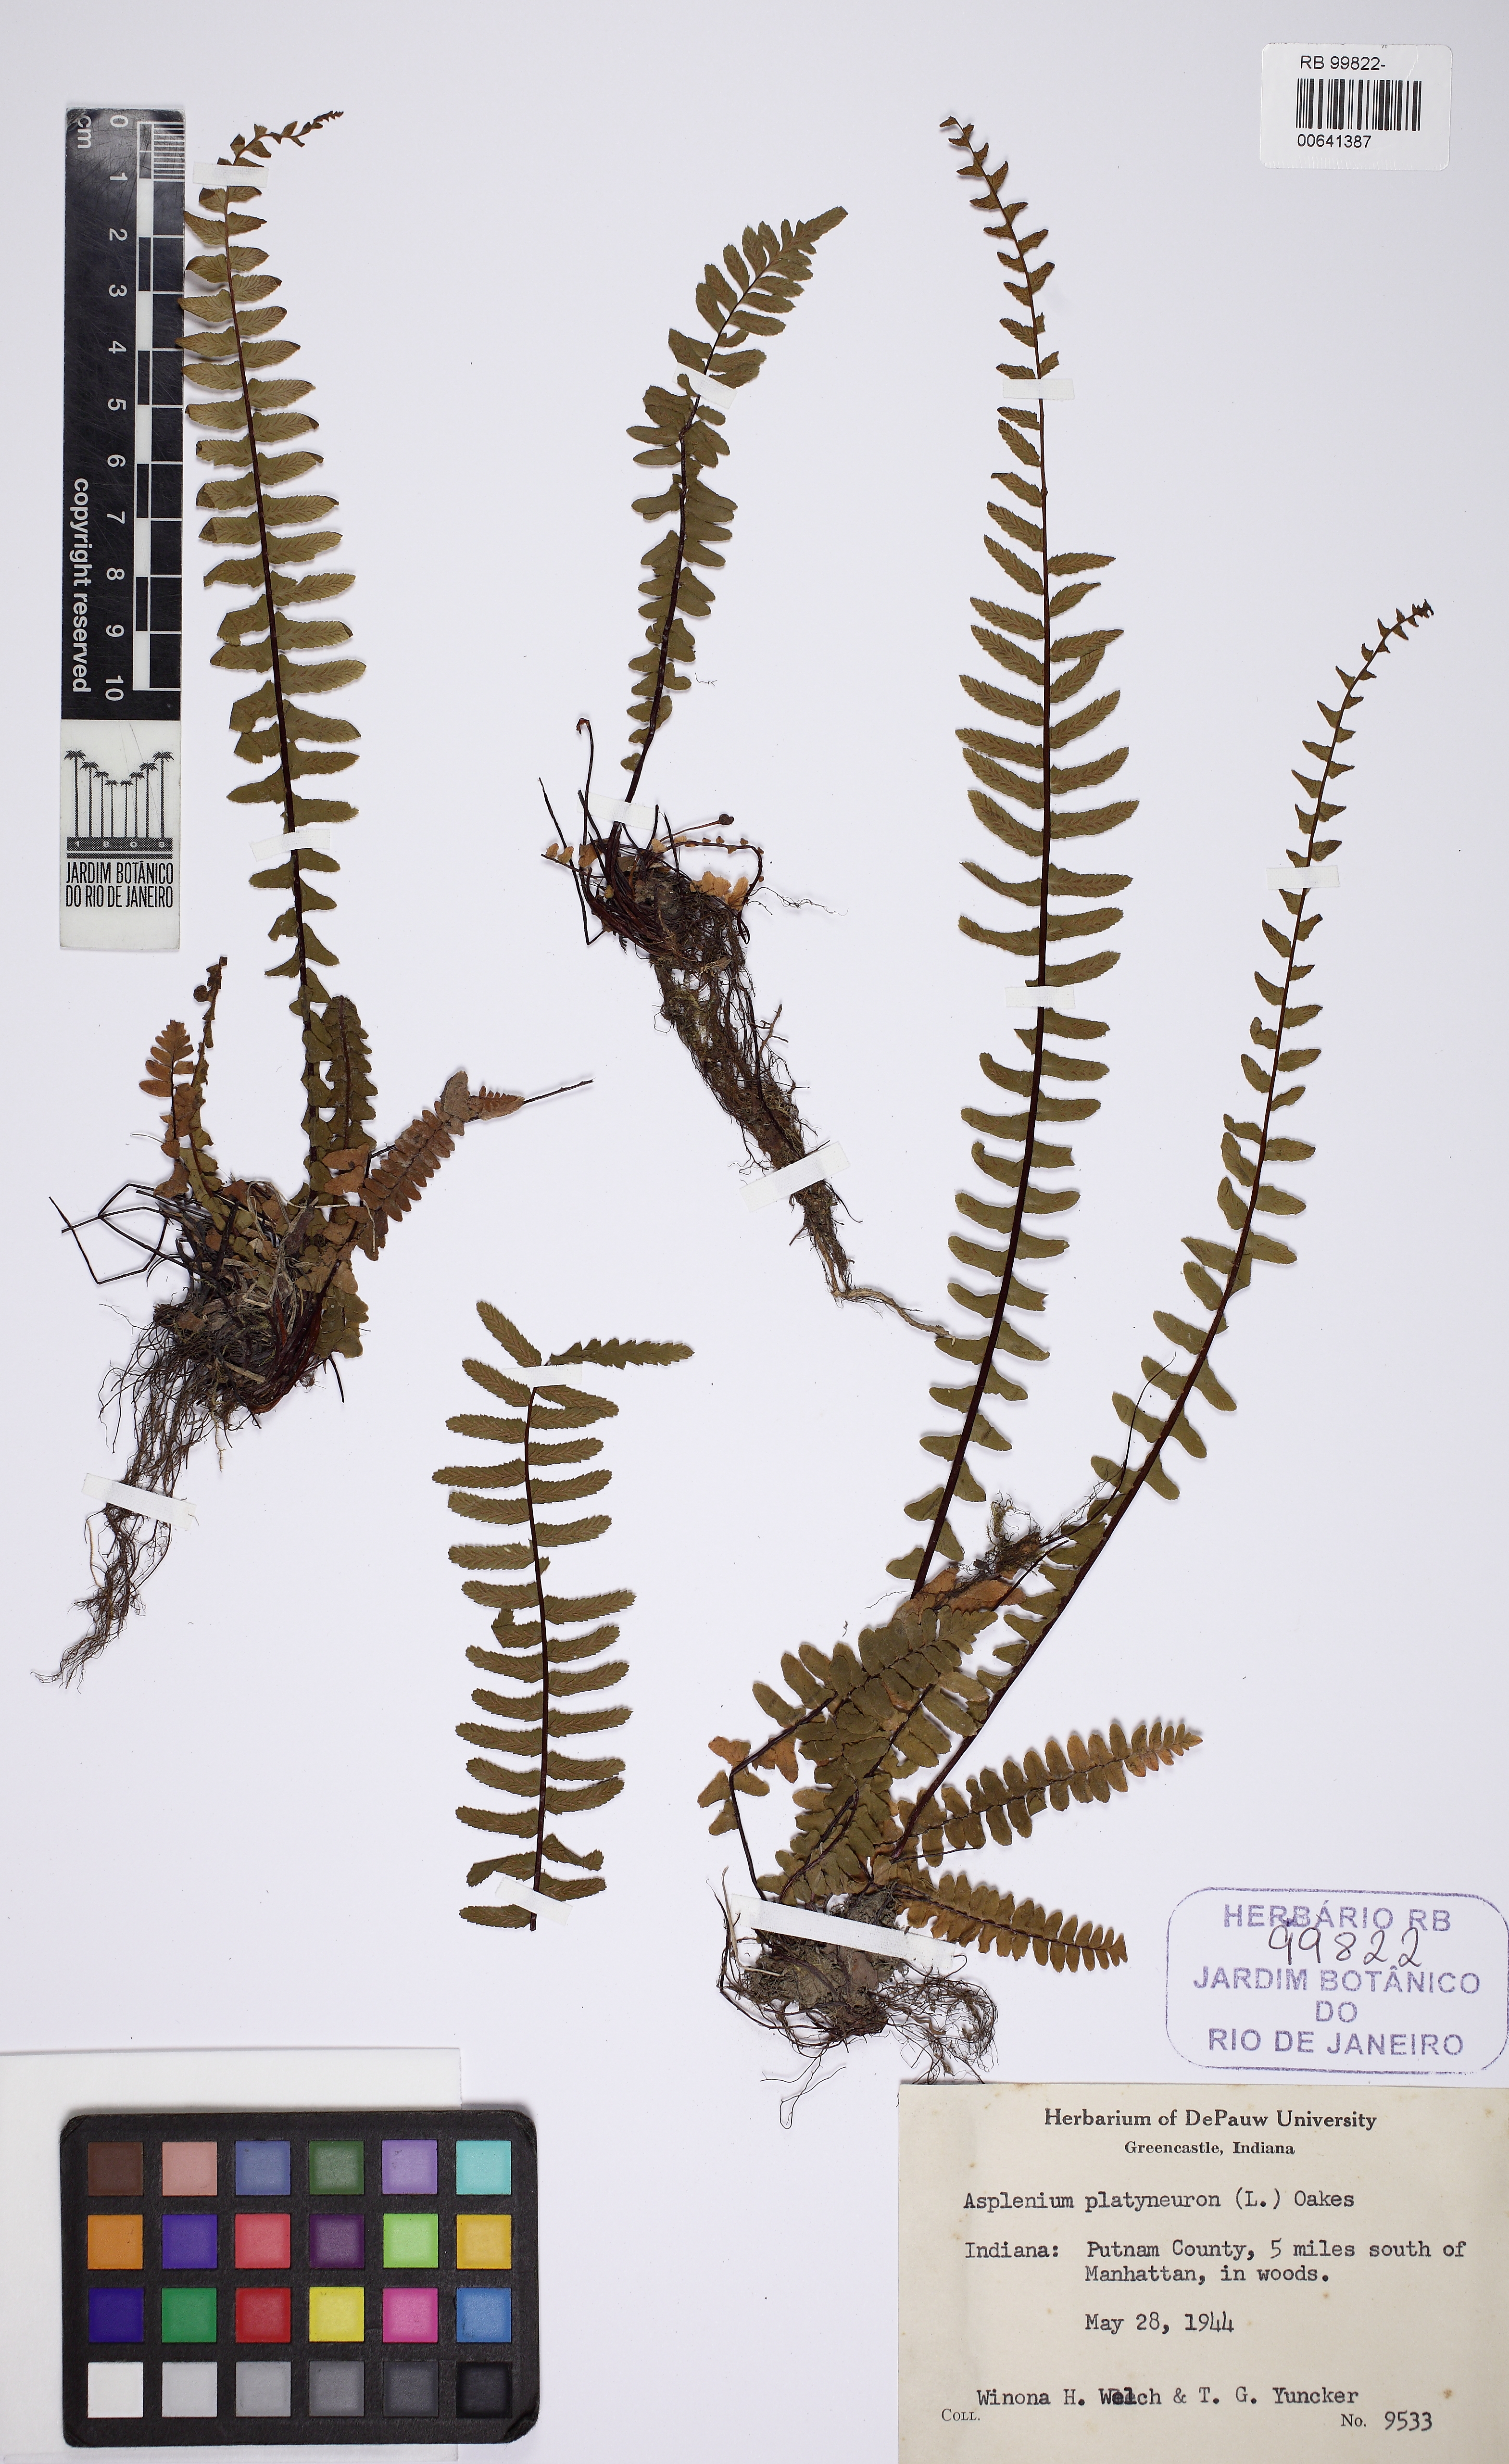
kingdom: Plantae
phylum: Tracheophyta
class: Polypodiopsida
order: Polypodiales
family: Aspleniaceae
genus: Asplenium
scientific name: Asplenium platyneuron
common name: Ebony spleenwort
